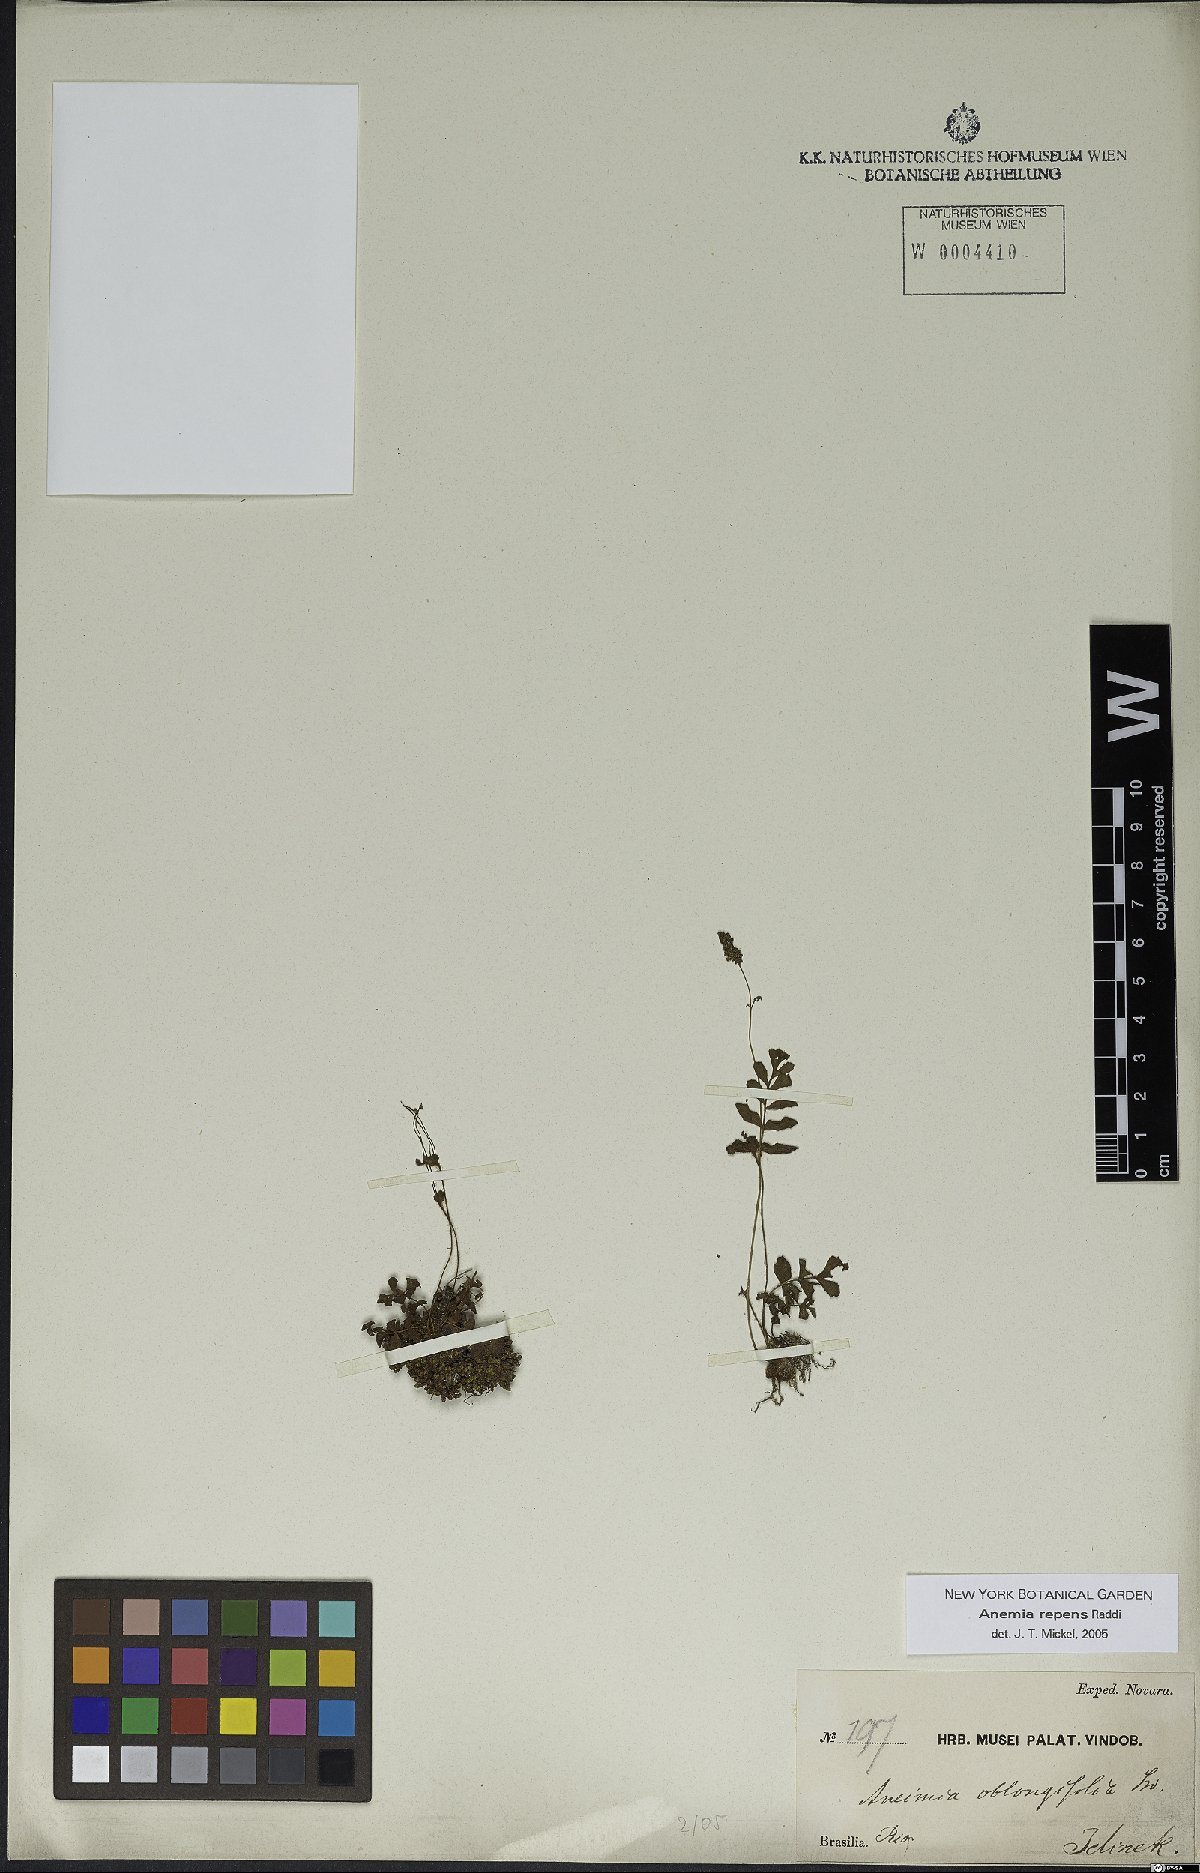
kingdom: Plantae
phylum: Tracheophyta
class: Polypodiopsida
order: Schizaeales
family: Anemiaceae
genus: Anemia
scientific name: Anemia repens
